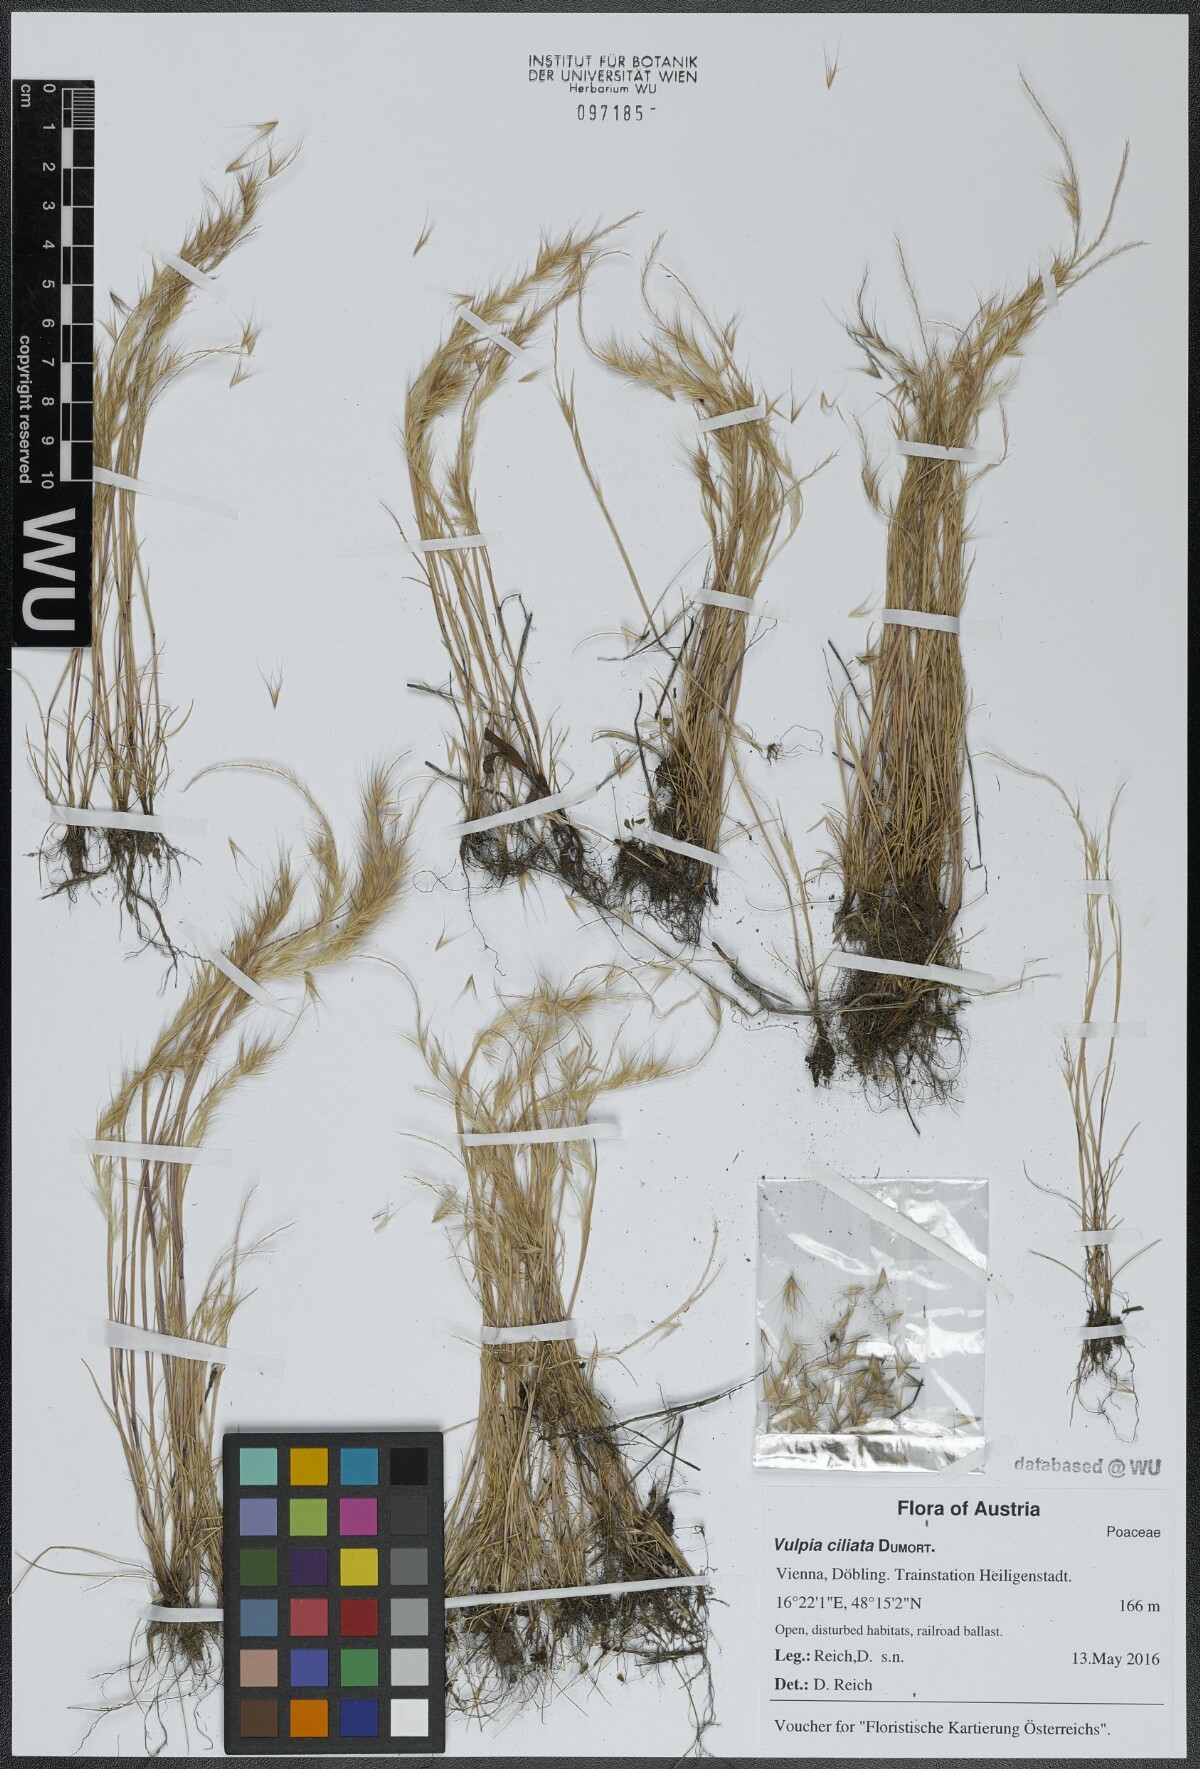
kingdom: Plantae
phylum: Tracheophyta
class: Liliopsida
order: Poales
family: Poaceae
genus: Festuca
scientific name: Festuca ambigua
